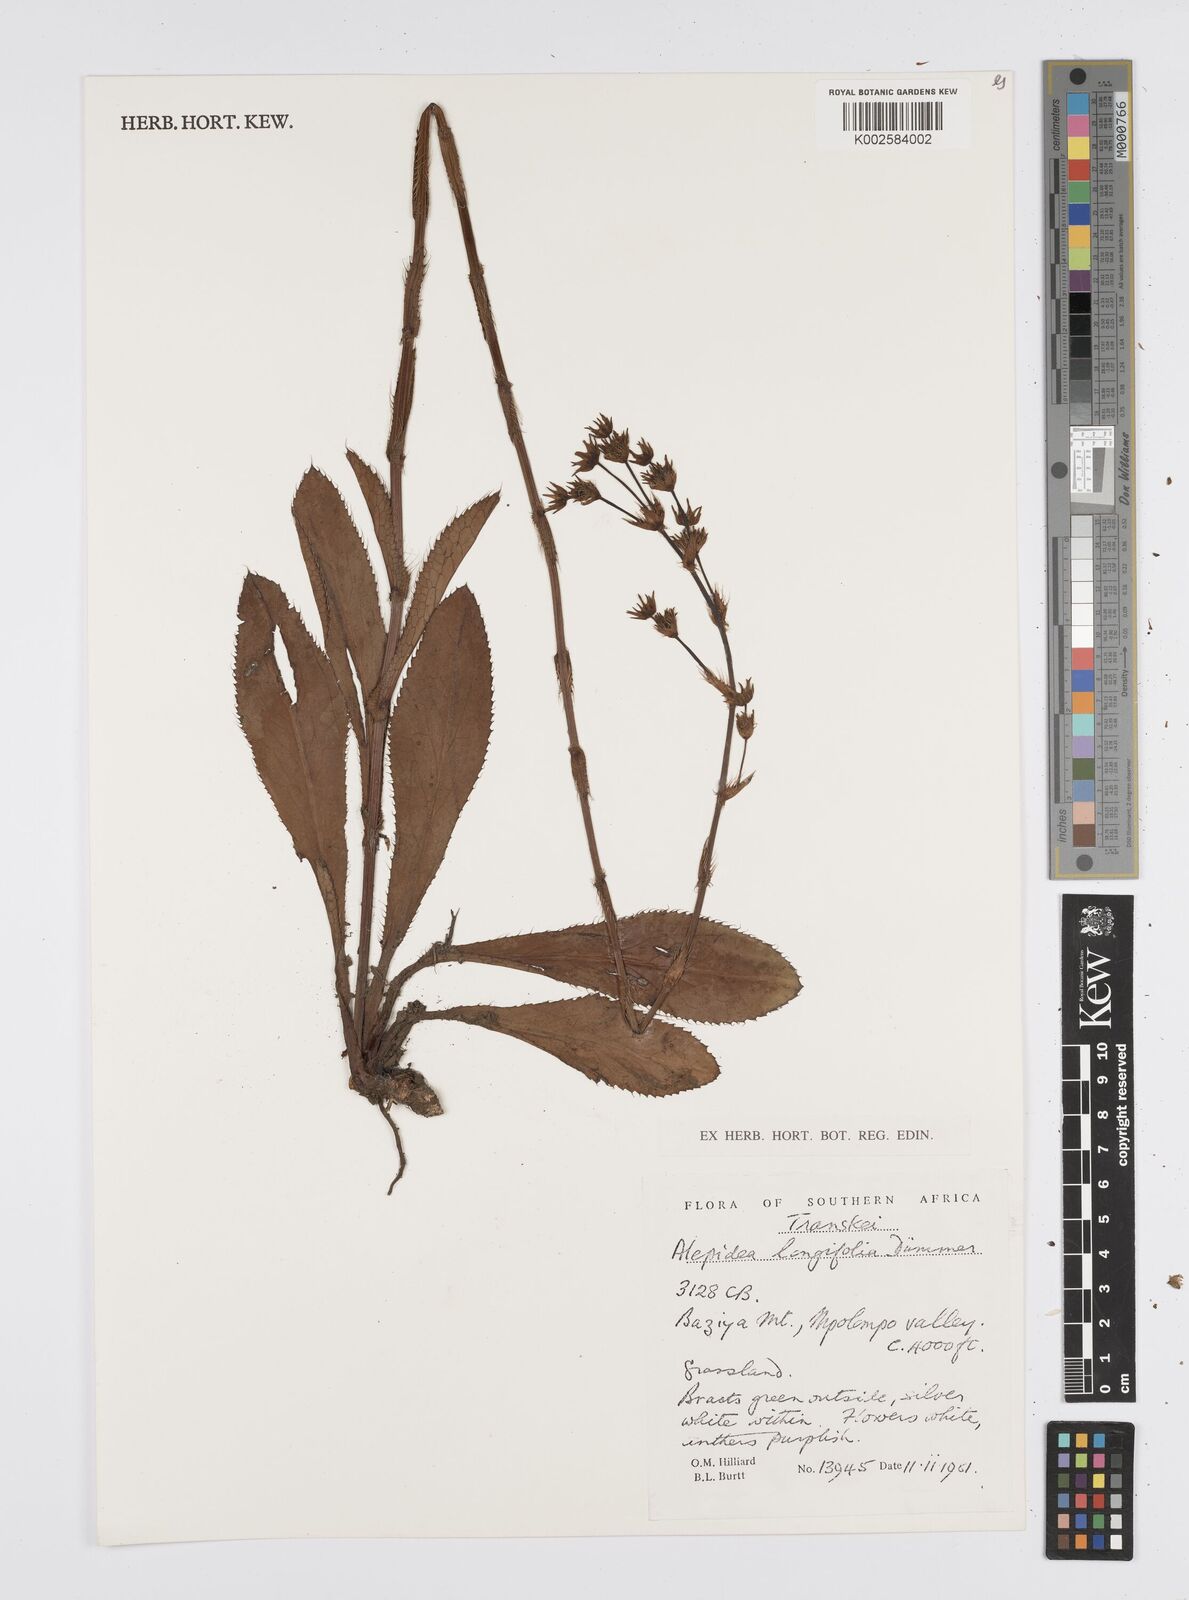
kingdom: Plantae
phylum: Tracheophyta
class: Magnoliopsida
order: Apiales
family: Apiaceae
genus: Alepidea
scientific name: Alepidea
